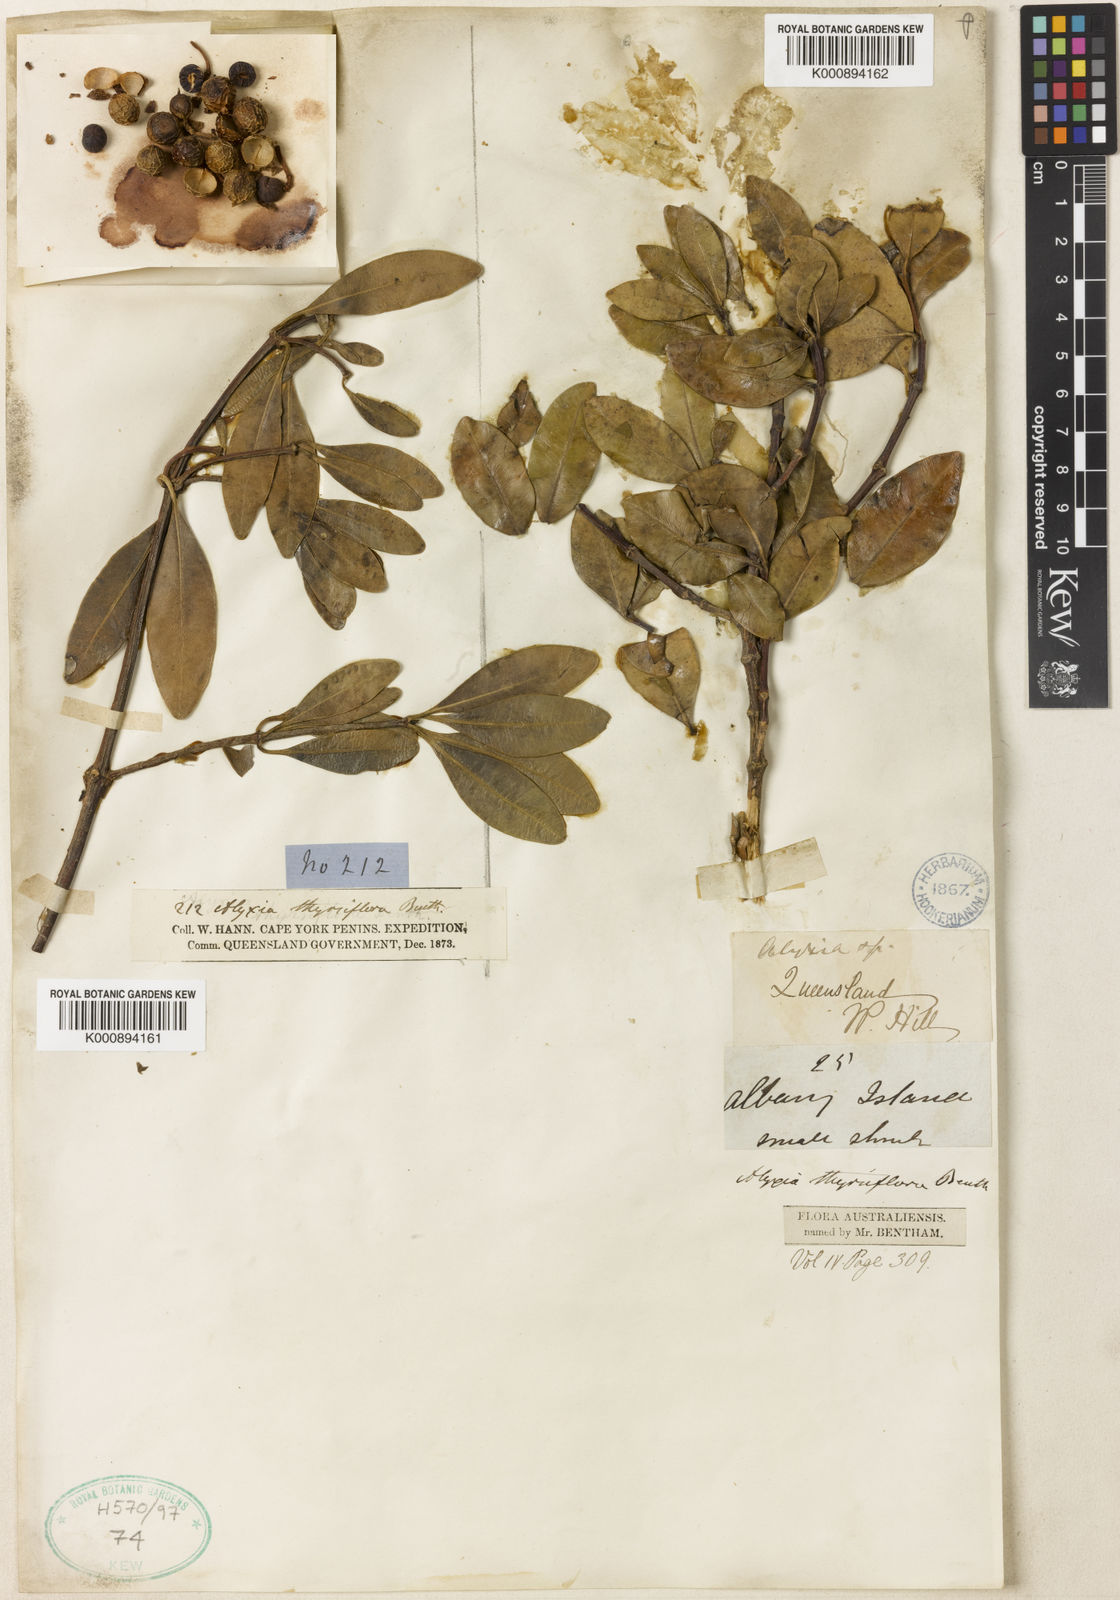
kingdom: Plantae
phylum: Tracheophyta
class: Magnoliopsida
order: Gentianales
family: Apocynaceae
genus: Alyxia
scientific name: Alyxia spicata
